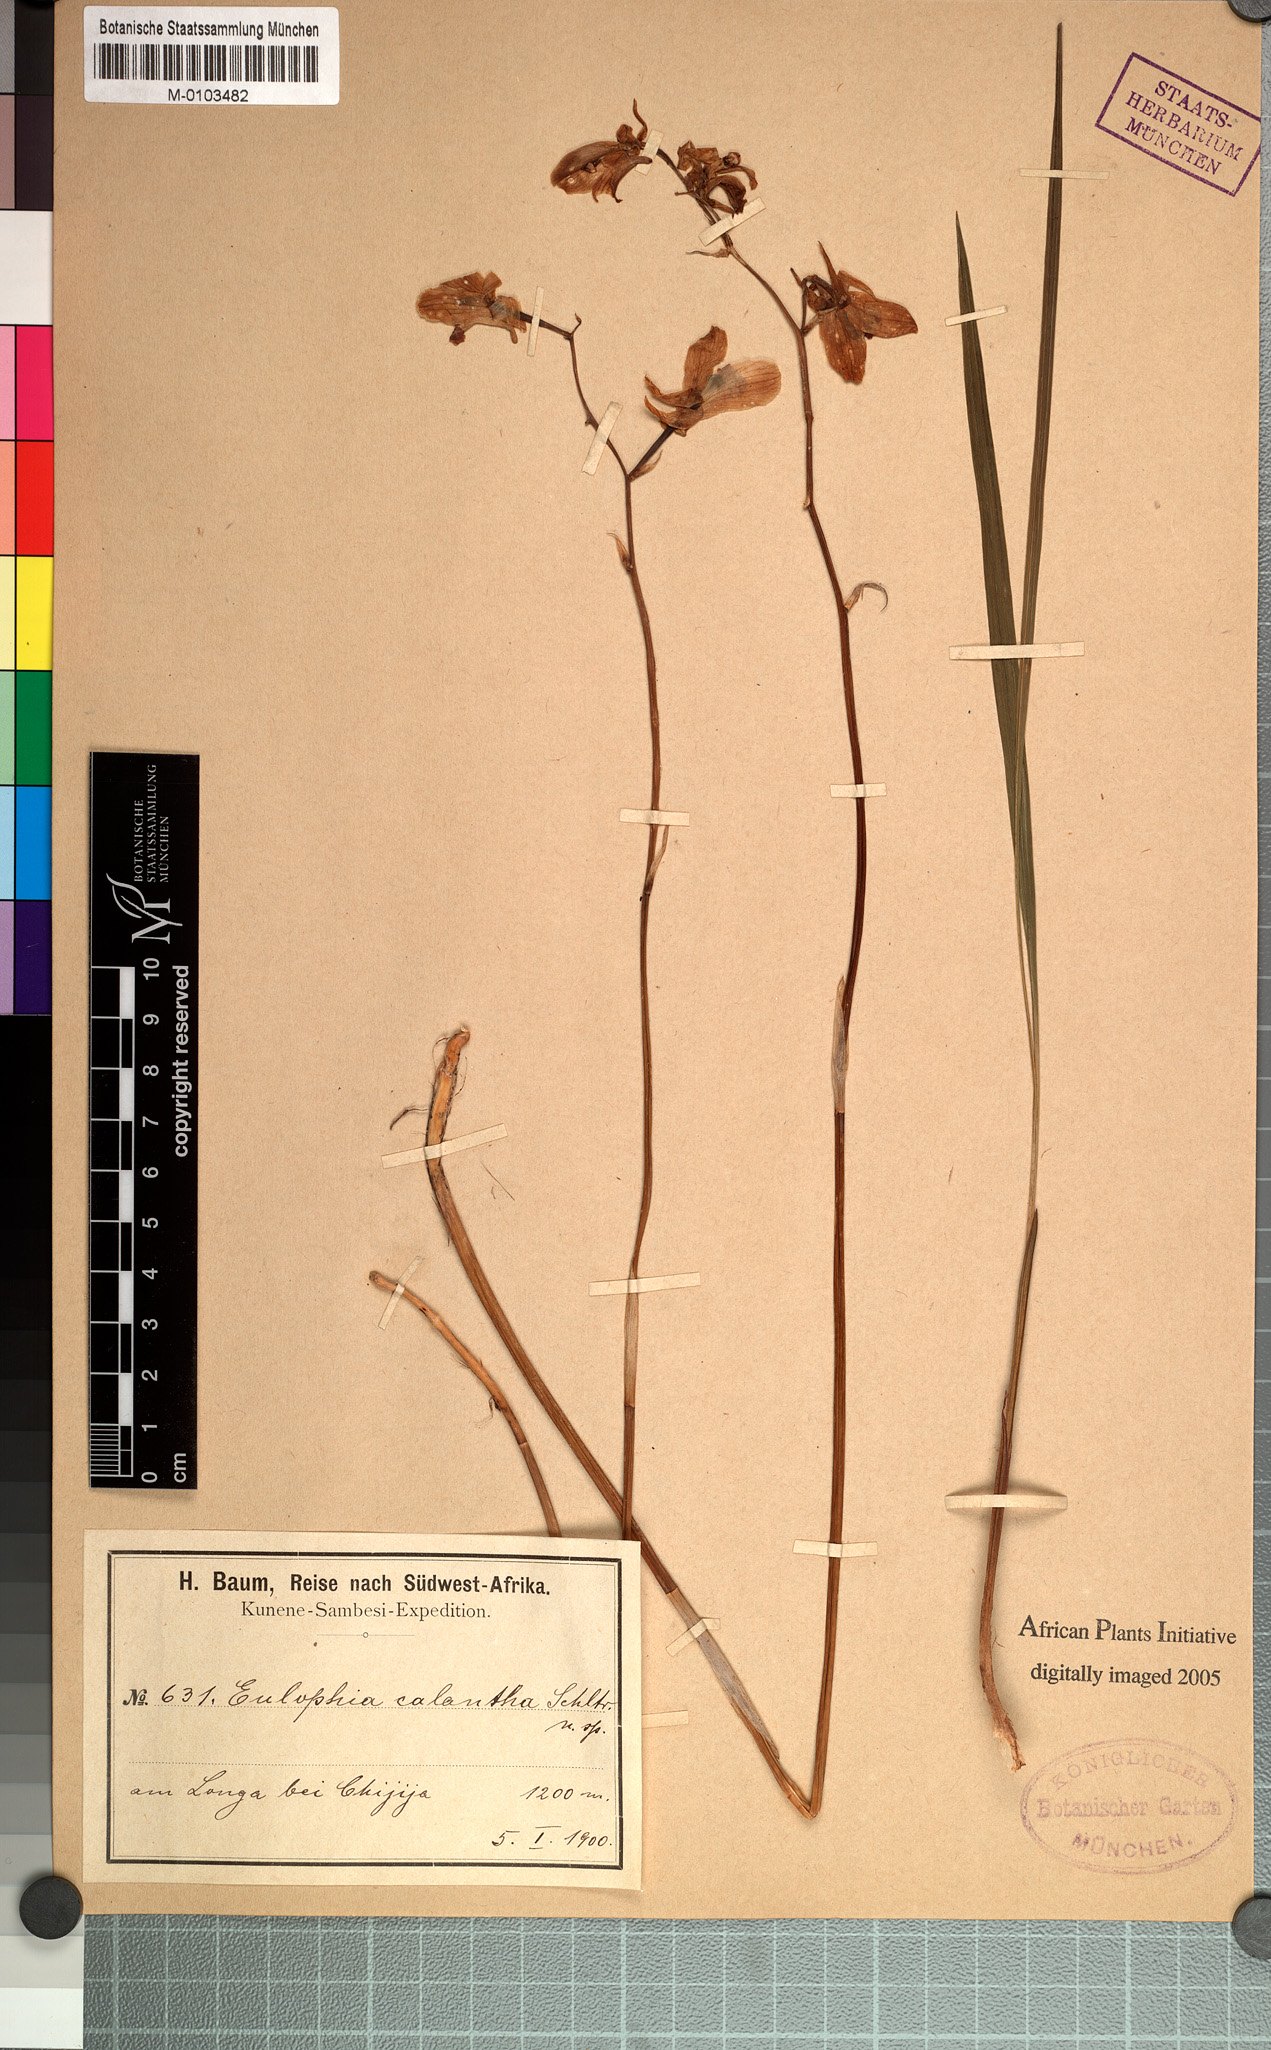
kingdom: Plantae
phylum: Tracheophyta
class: Liliopsida
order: Asparagales
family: Orchidaceae
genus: Eulophia
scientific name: Eulophia calantha
